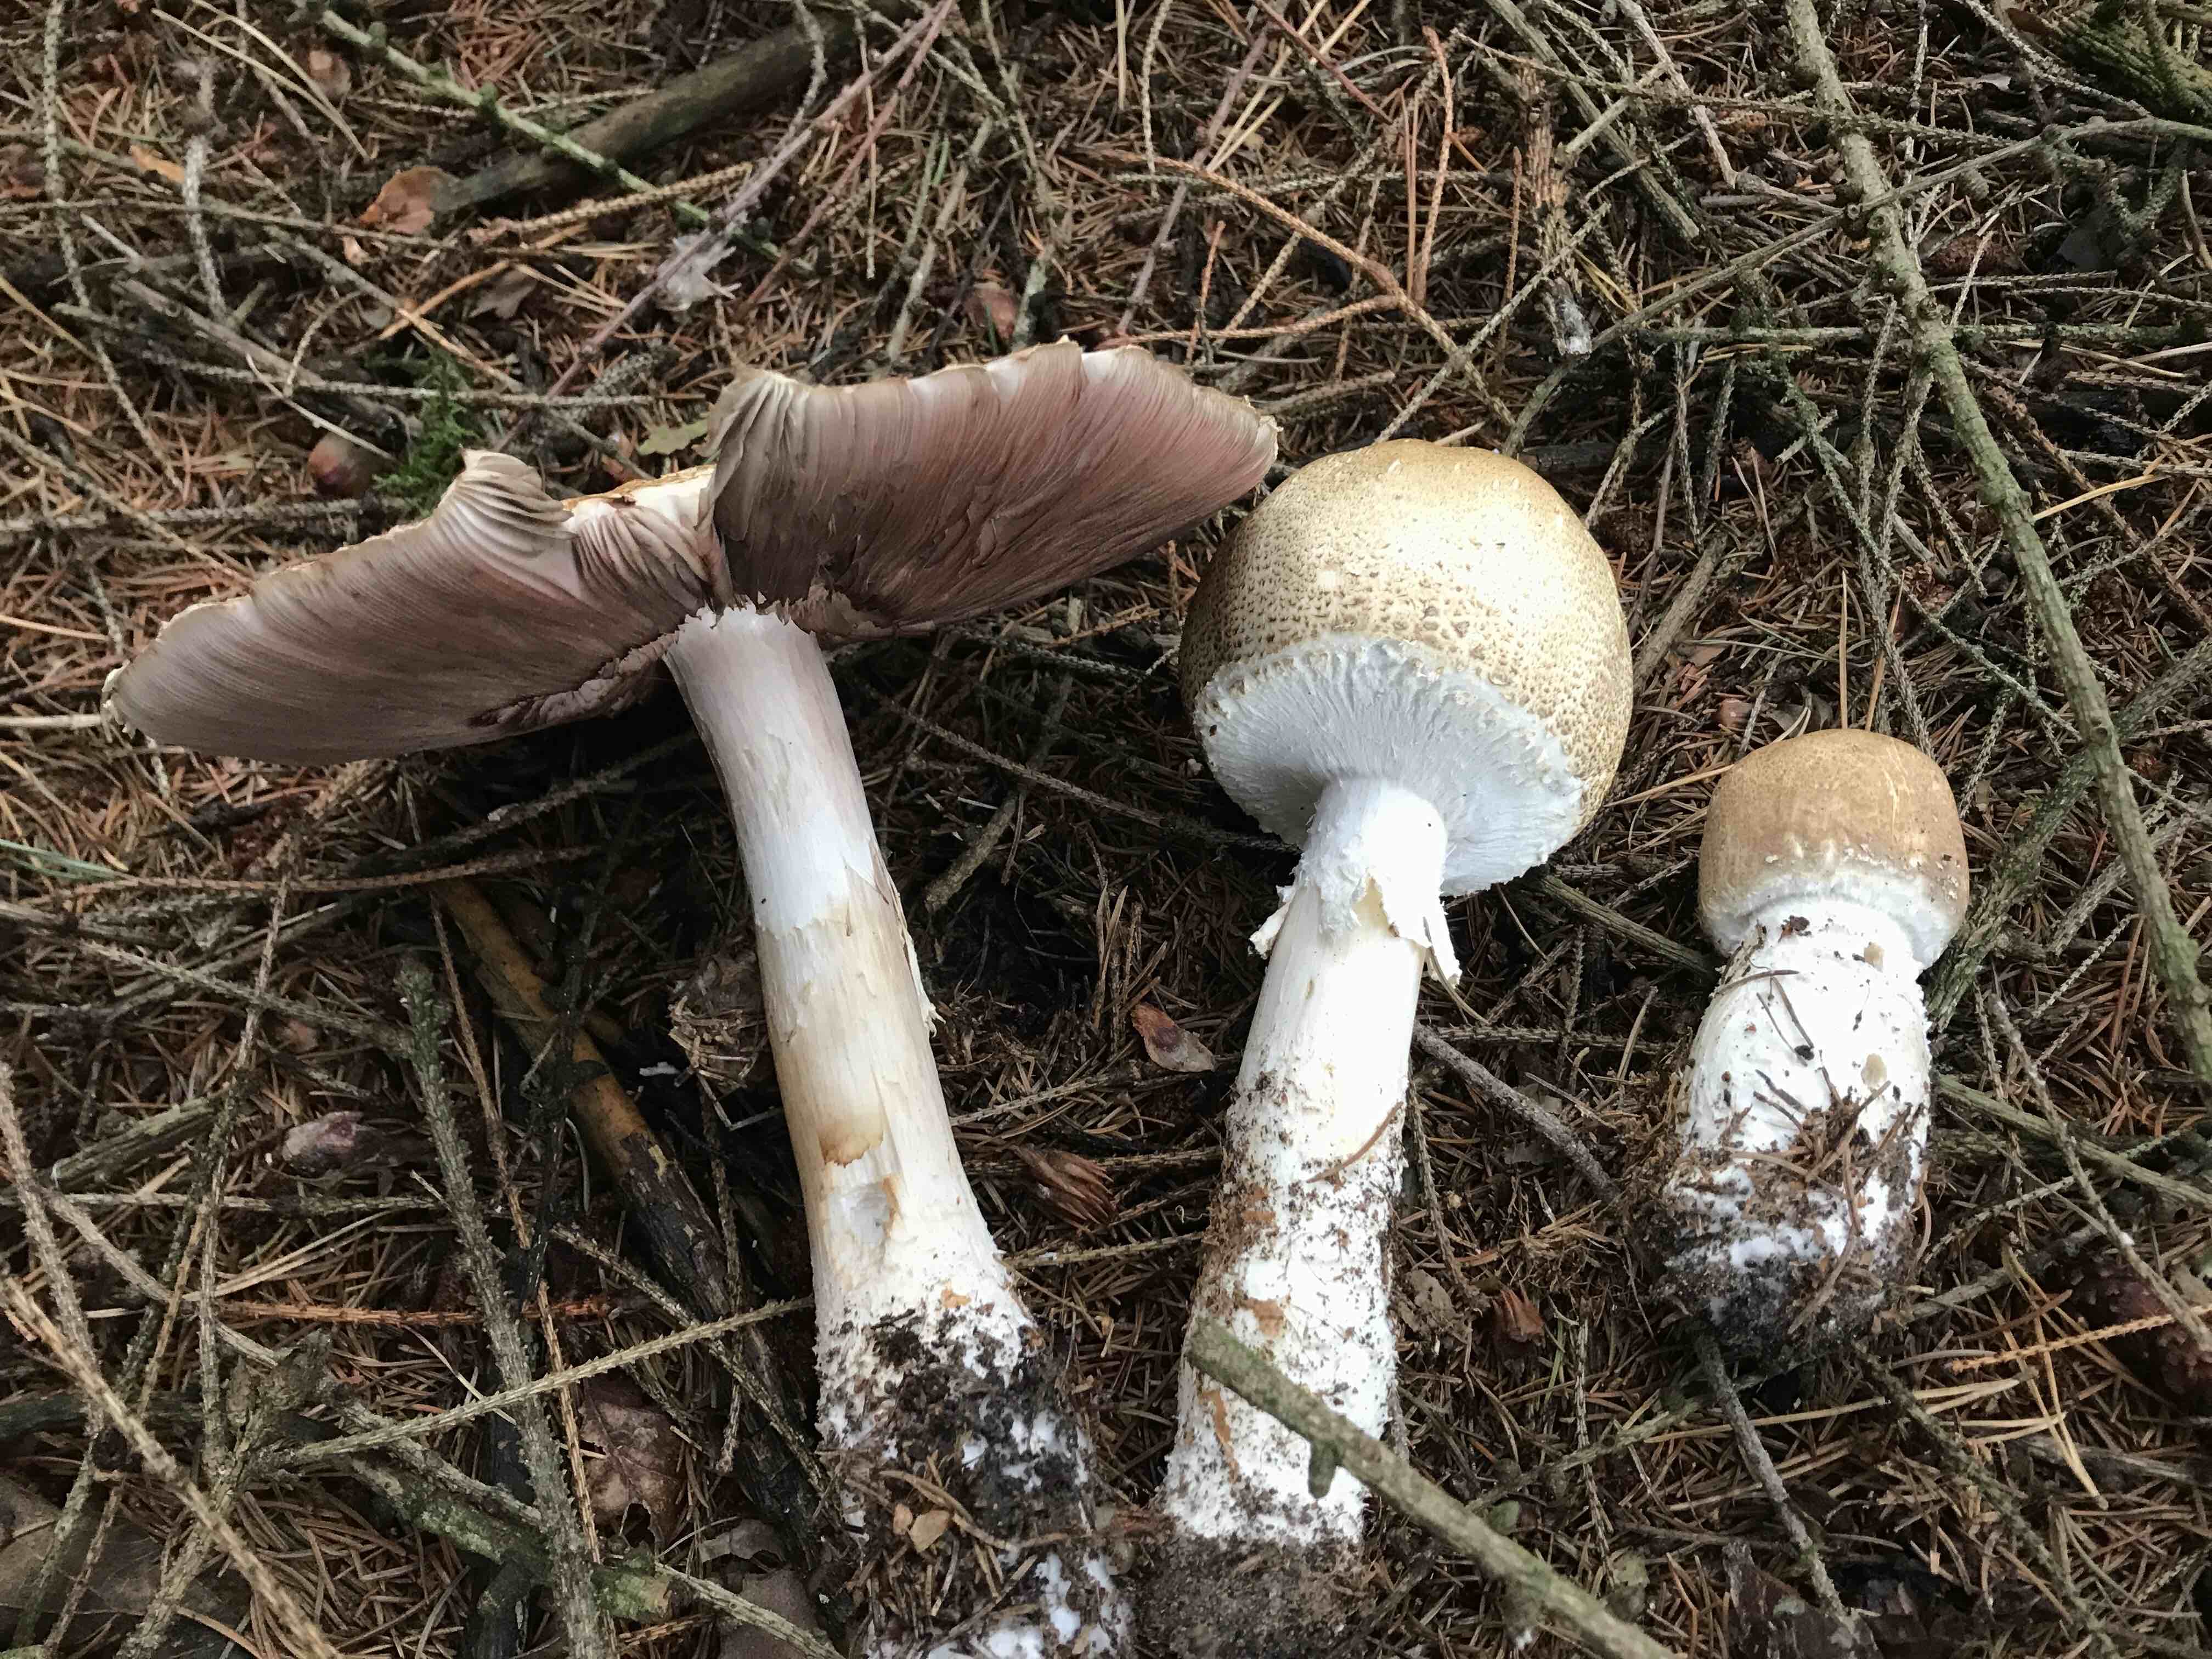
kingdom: Fungi
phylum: Basidiomycota
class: Agaricomycetes
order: Agaricales
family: Agaricaceae
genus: Agaricus
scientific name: Agaricus augustus
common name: prægtig champignon
